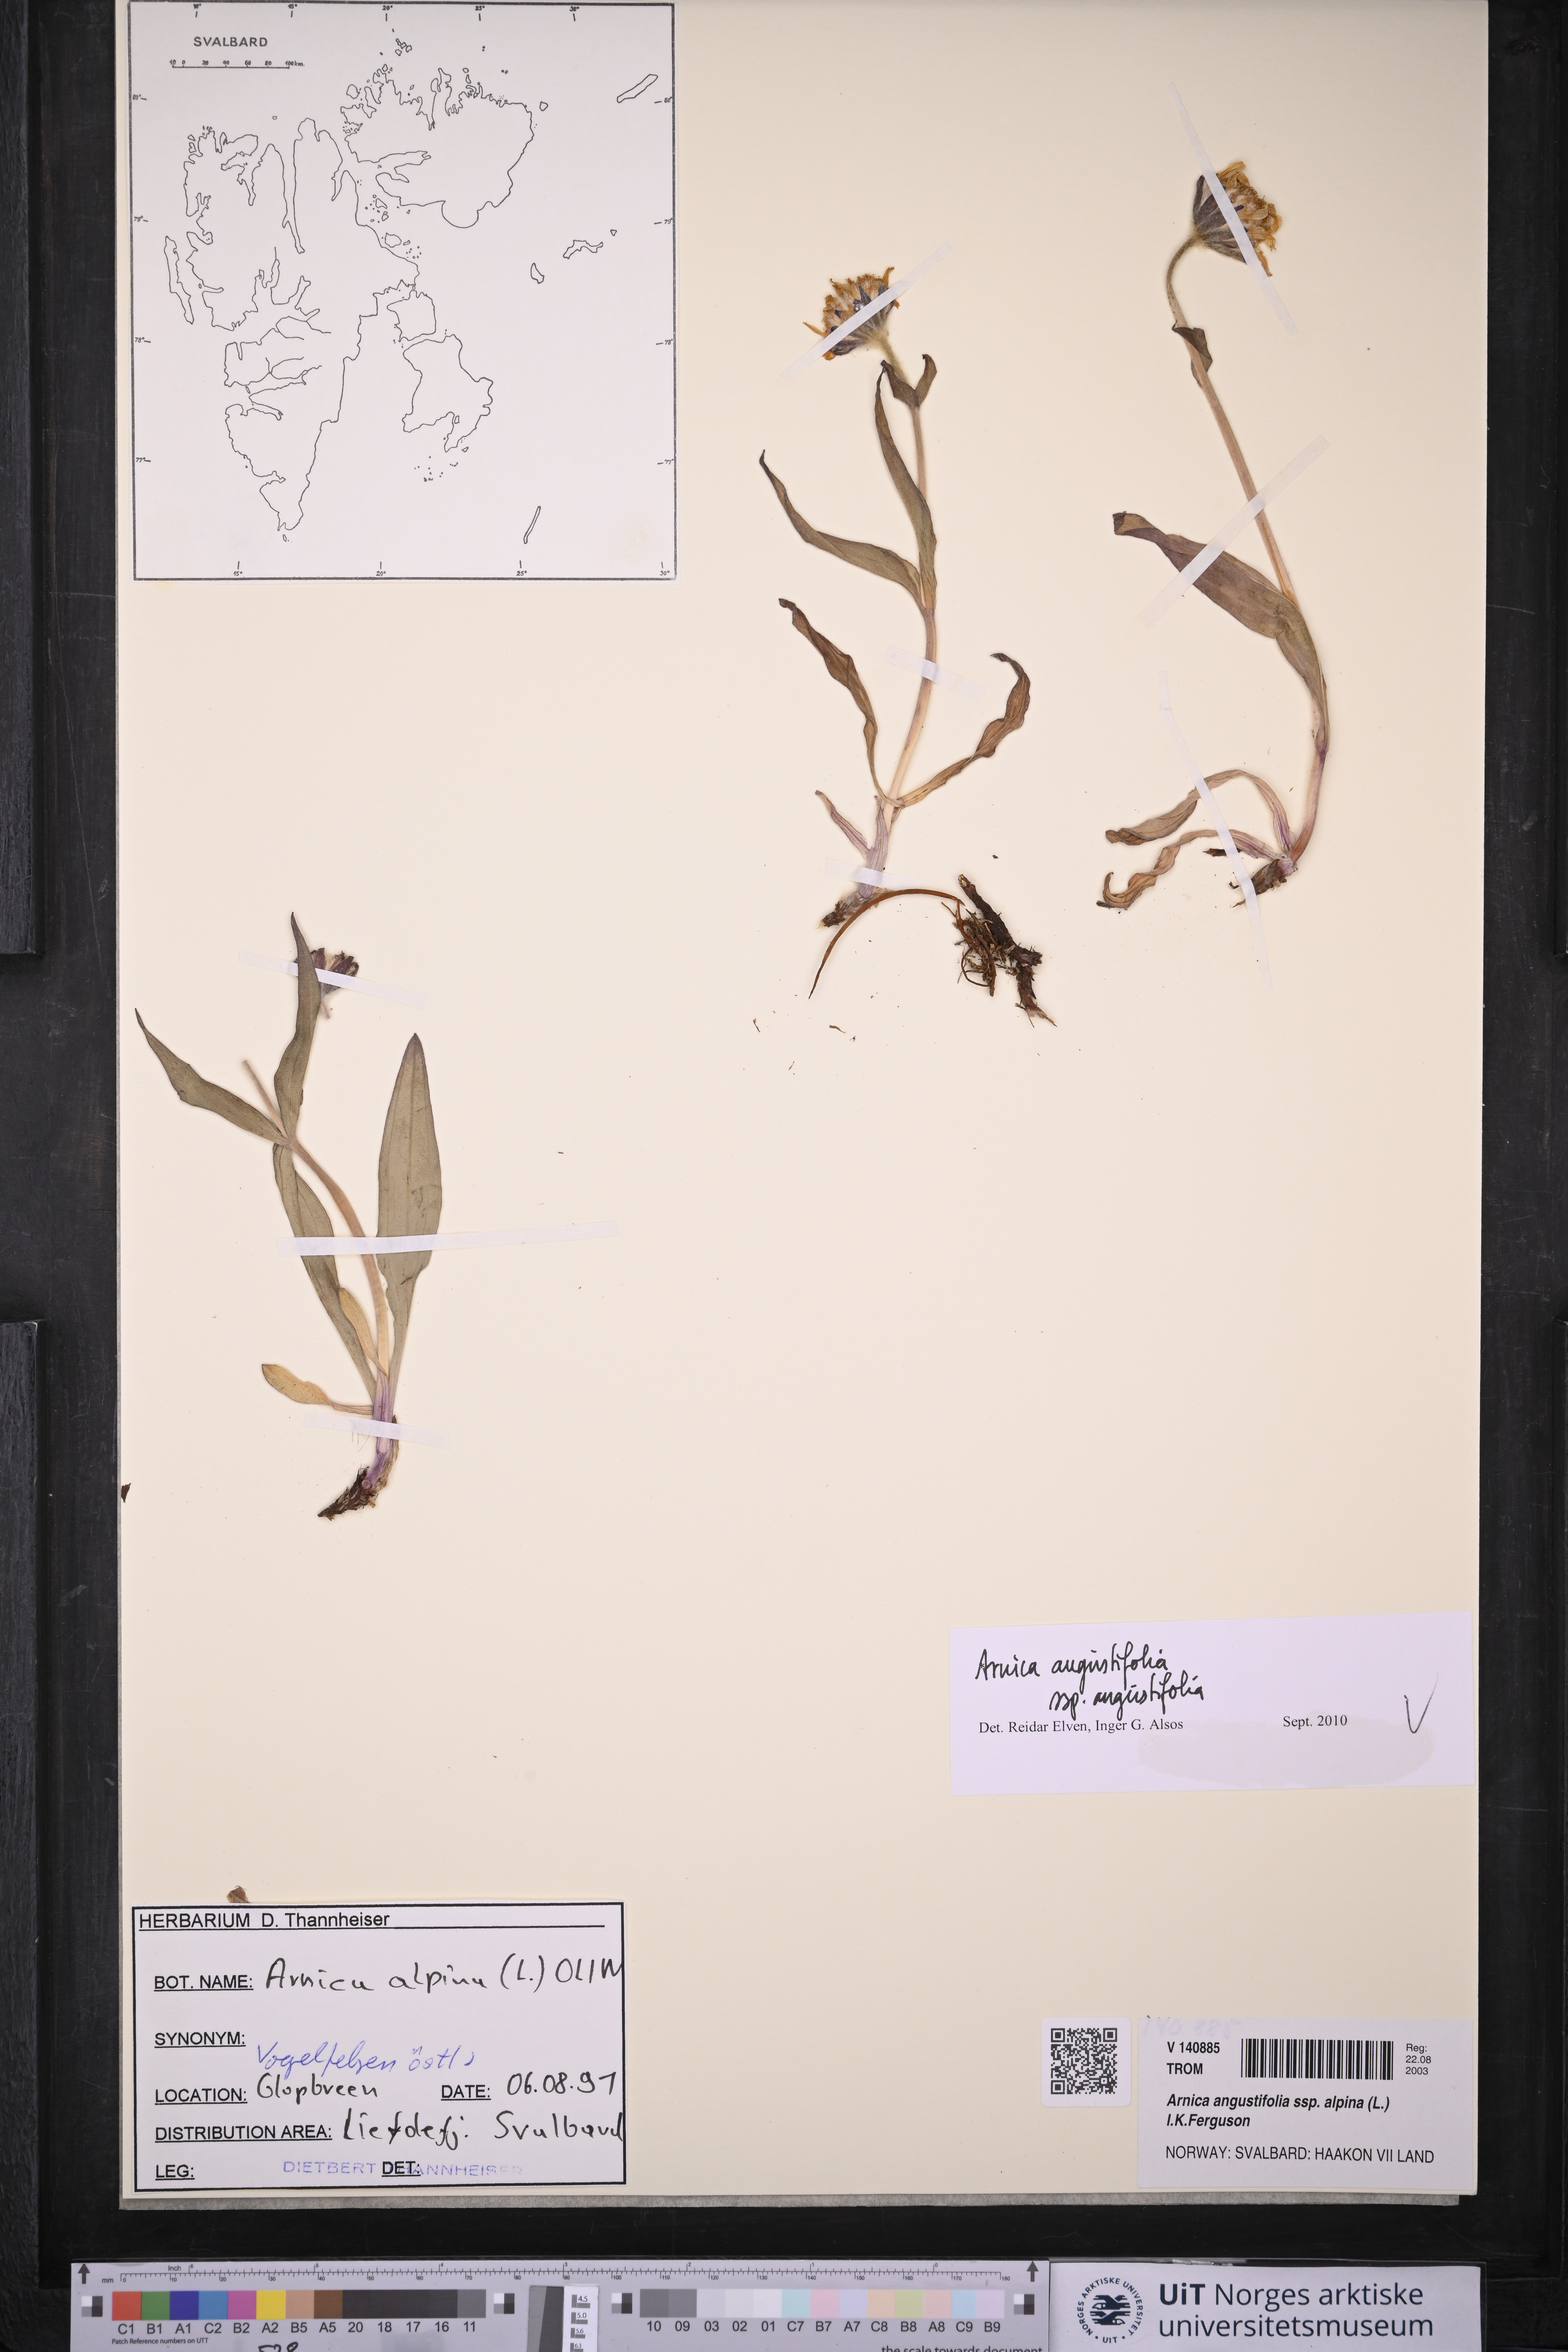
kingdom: Plantae
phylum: Tracheophyta
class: Magnoliopsida
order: Asterales
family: Asteraceae
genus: Arnica
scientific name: Arnica angustifolia
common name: Arctic arnica
